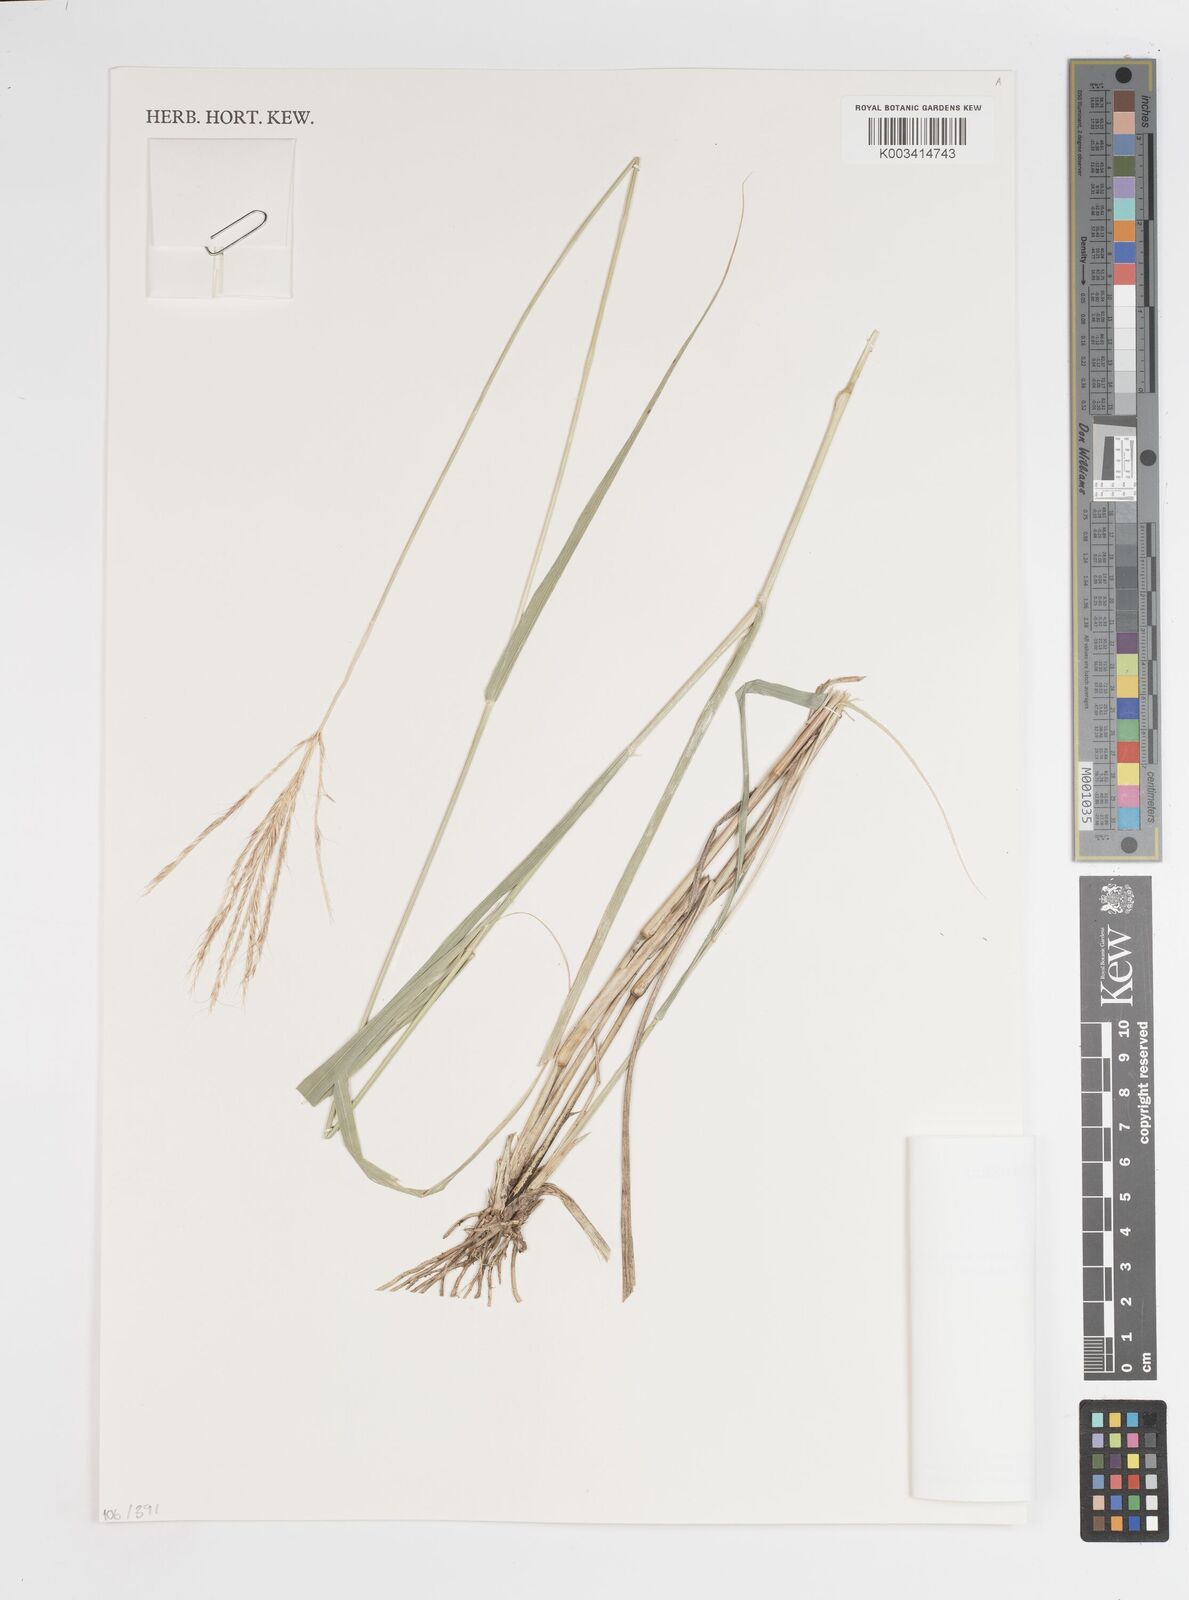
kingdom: Plantae
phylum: Tracheophyta
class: Liliopsida
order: Poales
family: Poaceae
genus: Chloris
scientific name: Chloris
